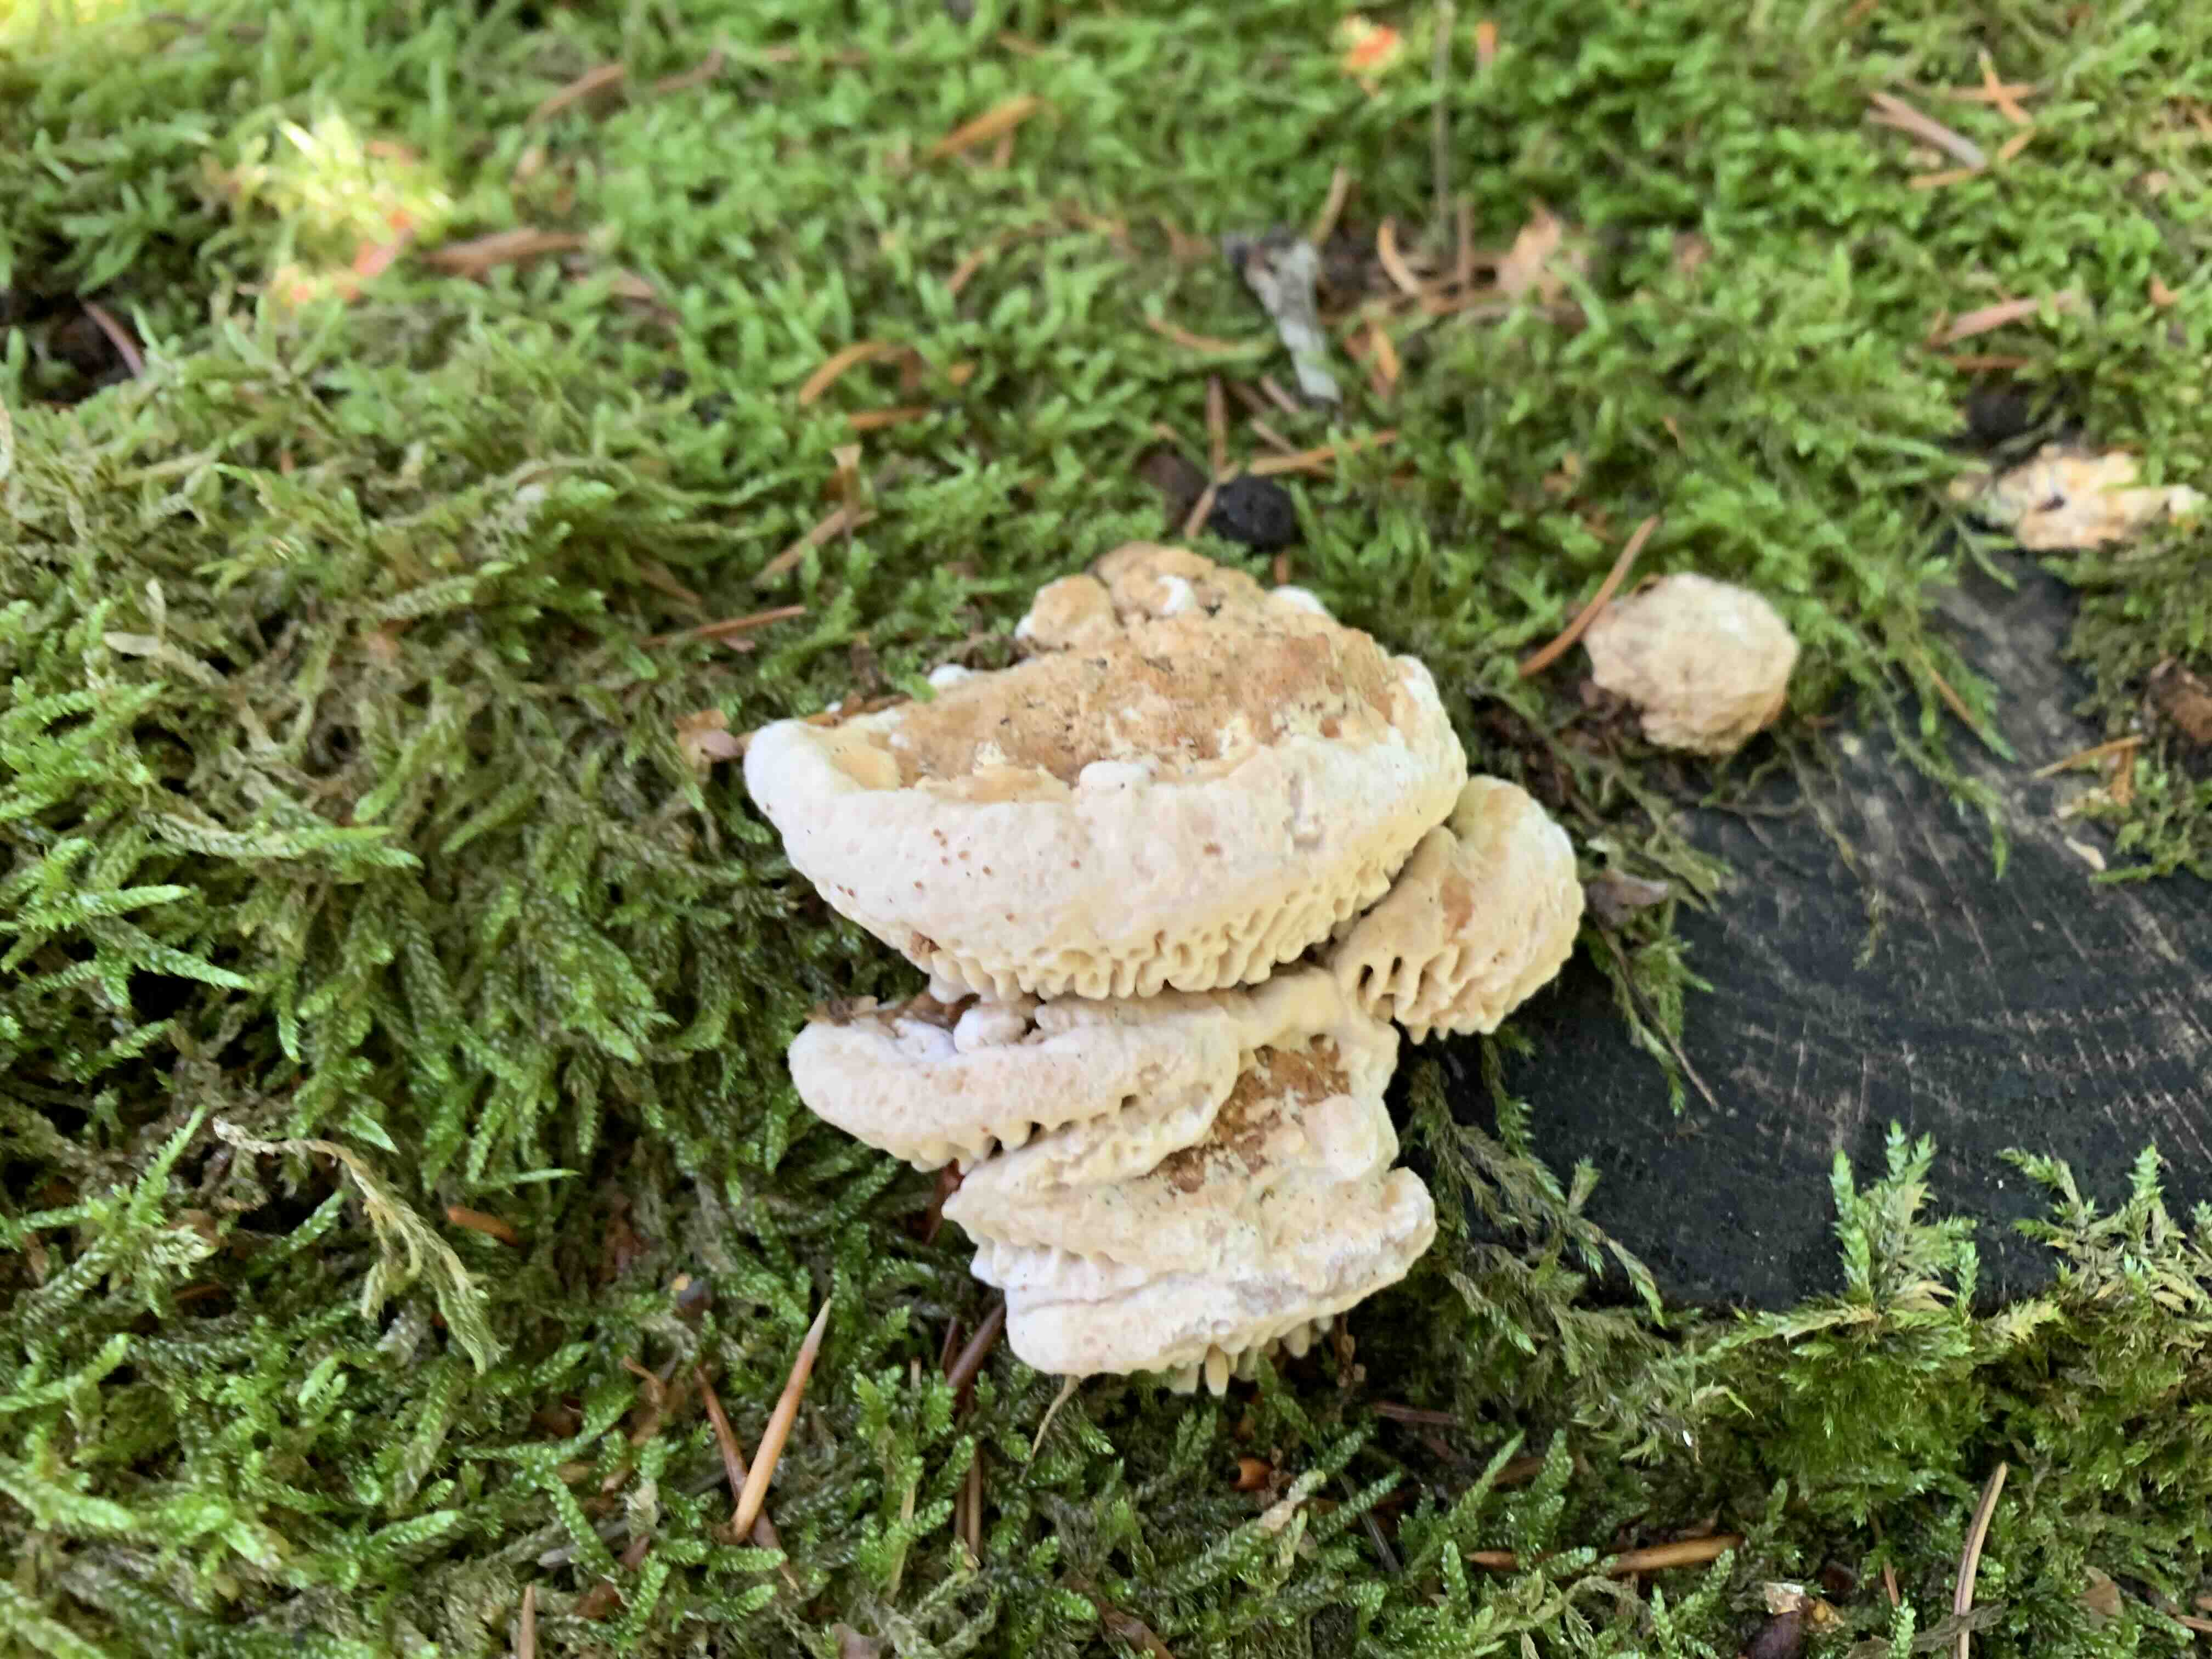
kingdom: Fungi
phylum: Basidiomycota
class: Agaricomycetes
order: Polyporales
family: Fomitopsidaceae
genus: Daedalea
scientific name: Daedalea quercina
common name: ege-labyrintsvamp
